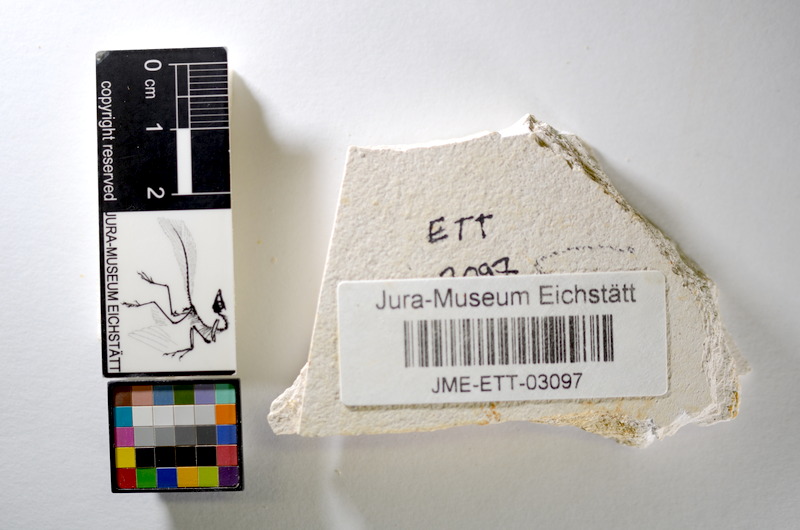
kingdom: Animalia
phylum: Chordata
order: Salmoniformes
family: Orthogonikleithridae
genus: Orthogonikleithrus
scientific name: Orthogonikleithrus hoelli
